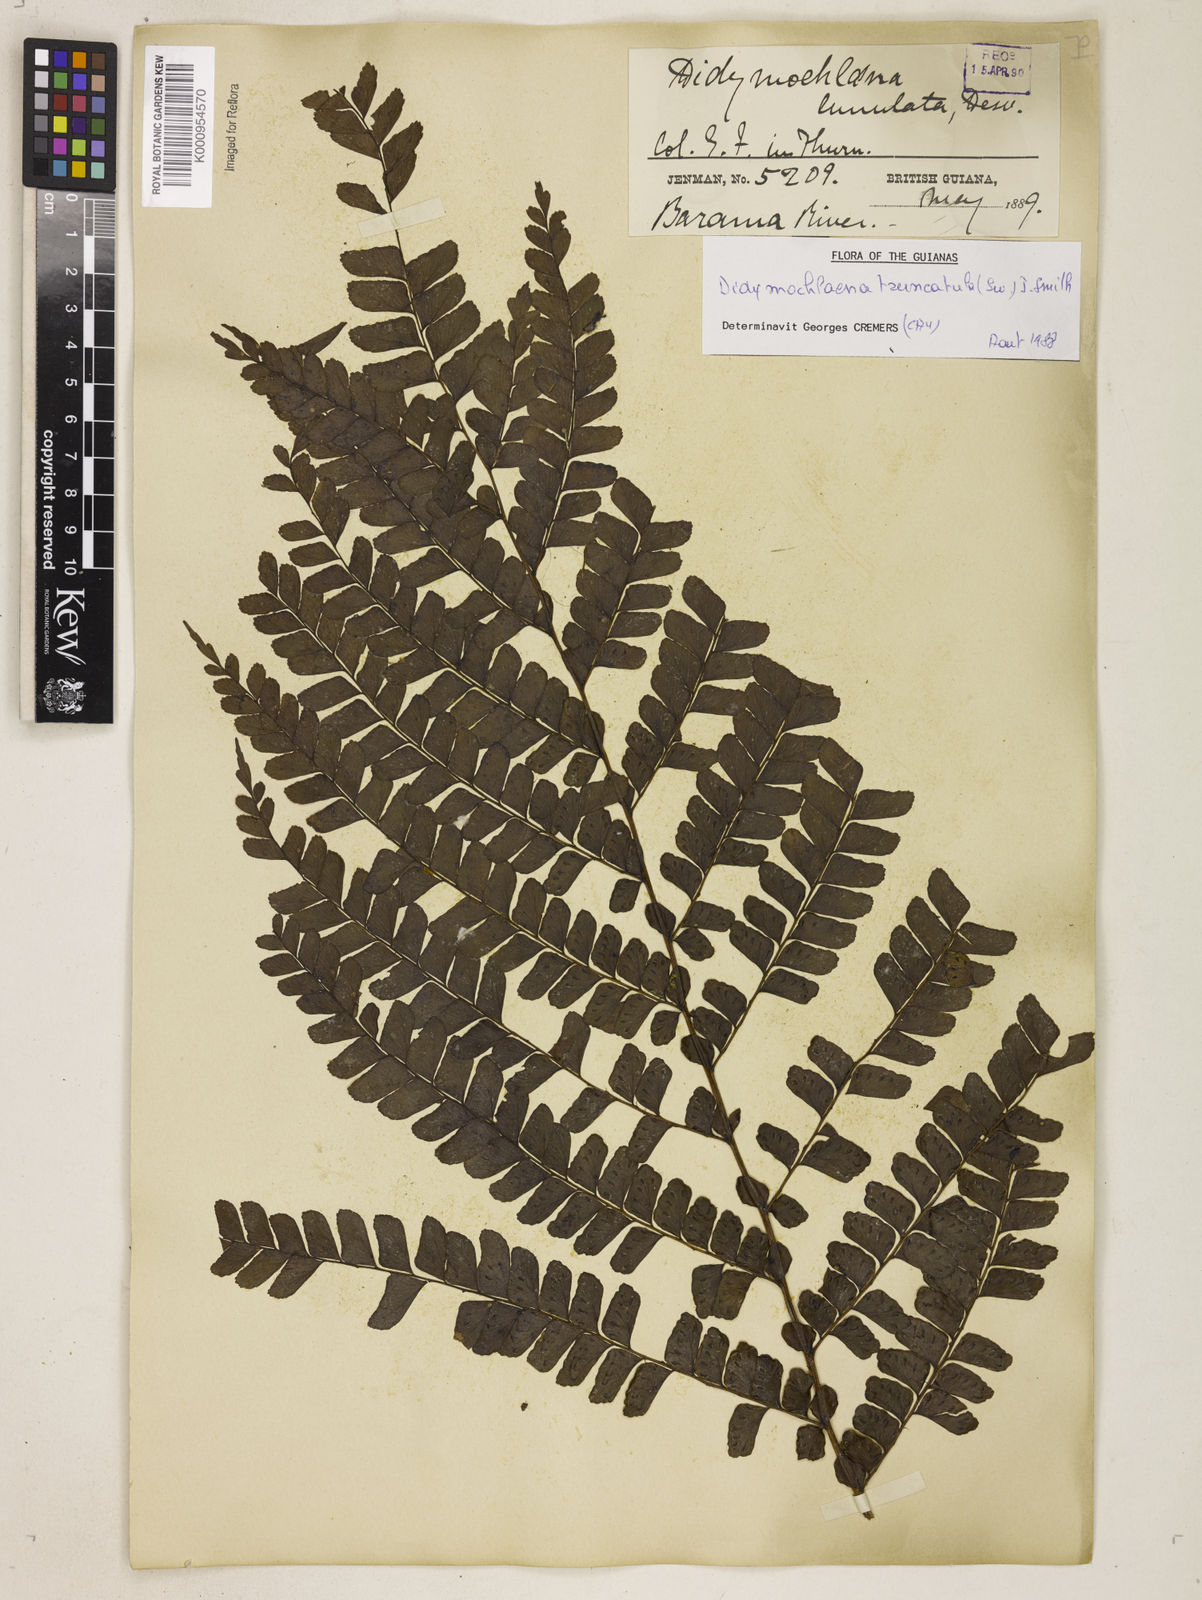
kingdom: Plantae
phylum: Tracheophyta
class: Polypodiopsida
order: Polypodiales
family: Didymochlaenaceae
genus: Didymochlaena
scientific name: Didymochlaena truncatula
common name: Mahogany fern
